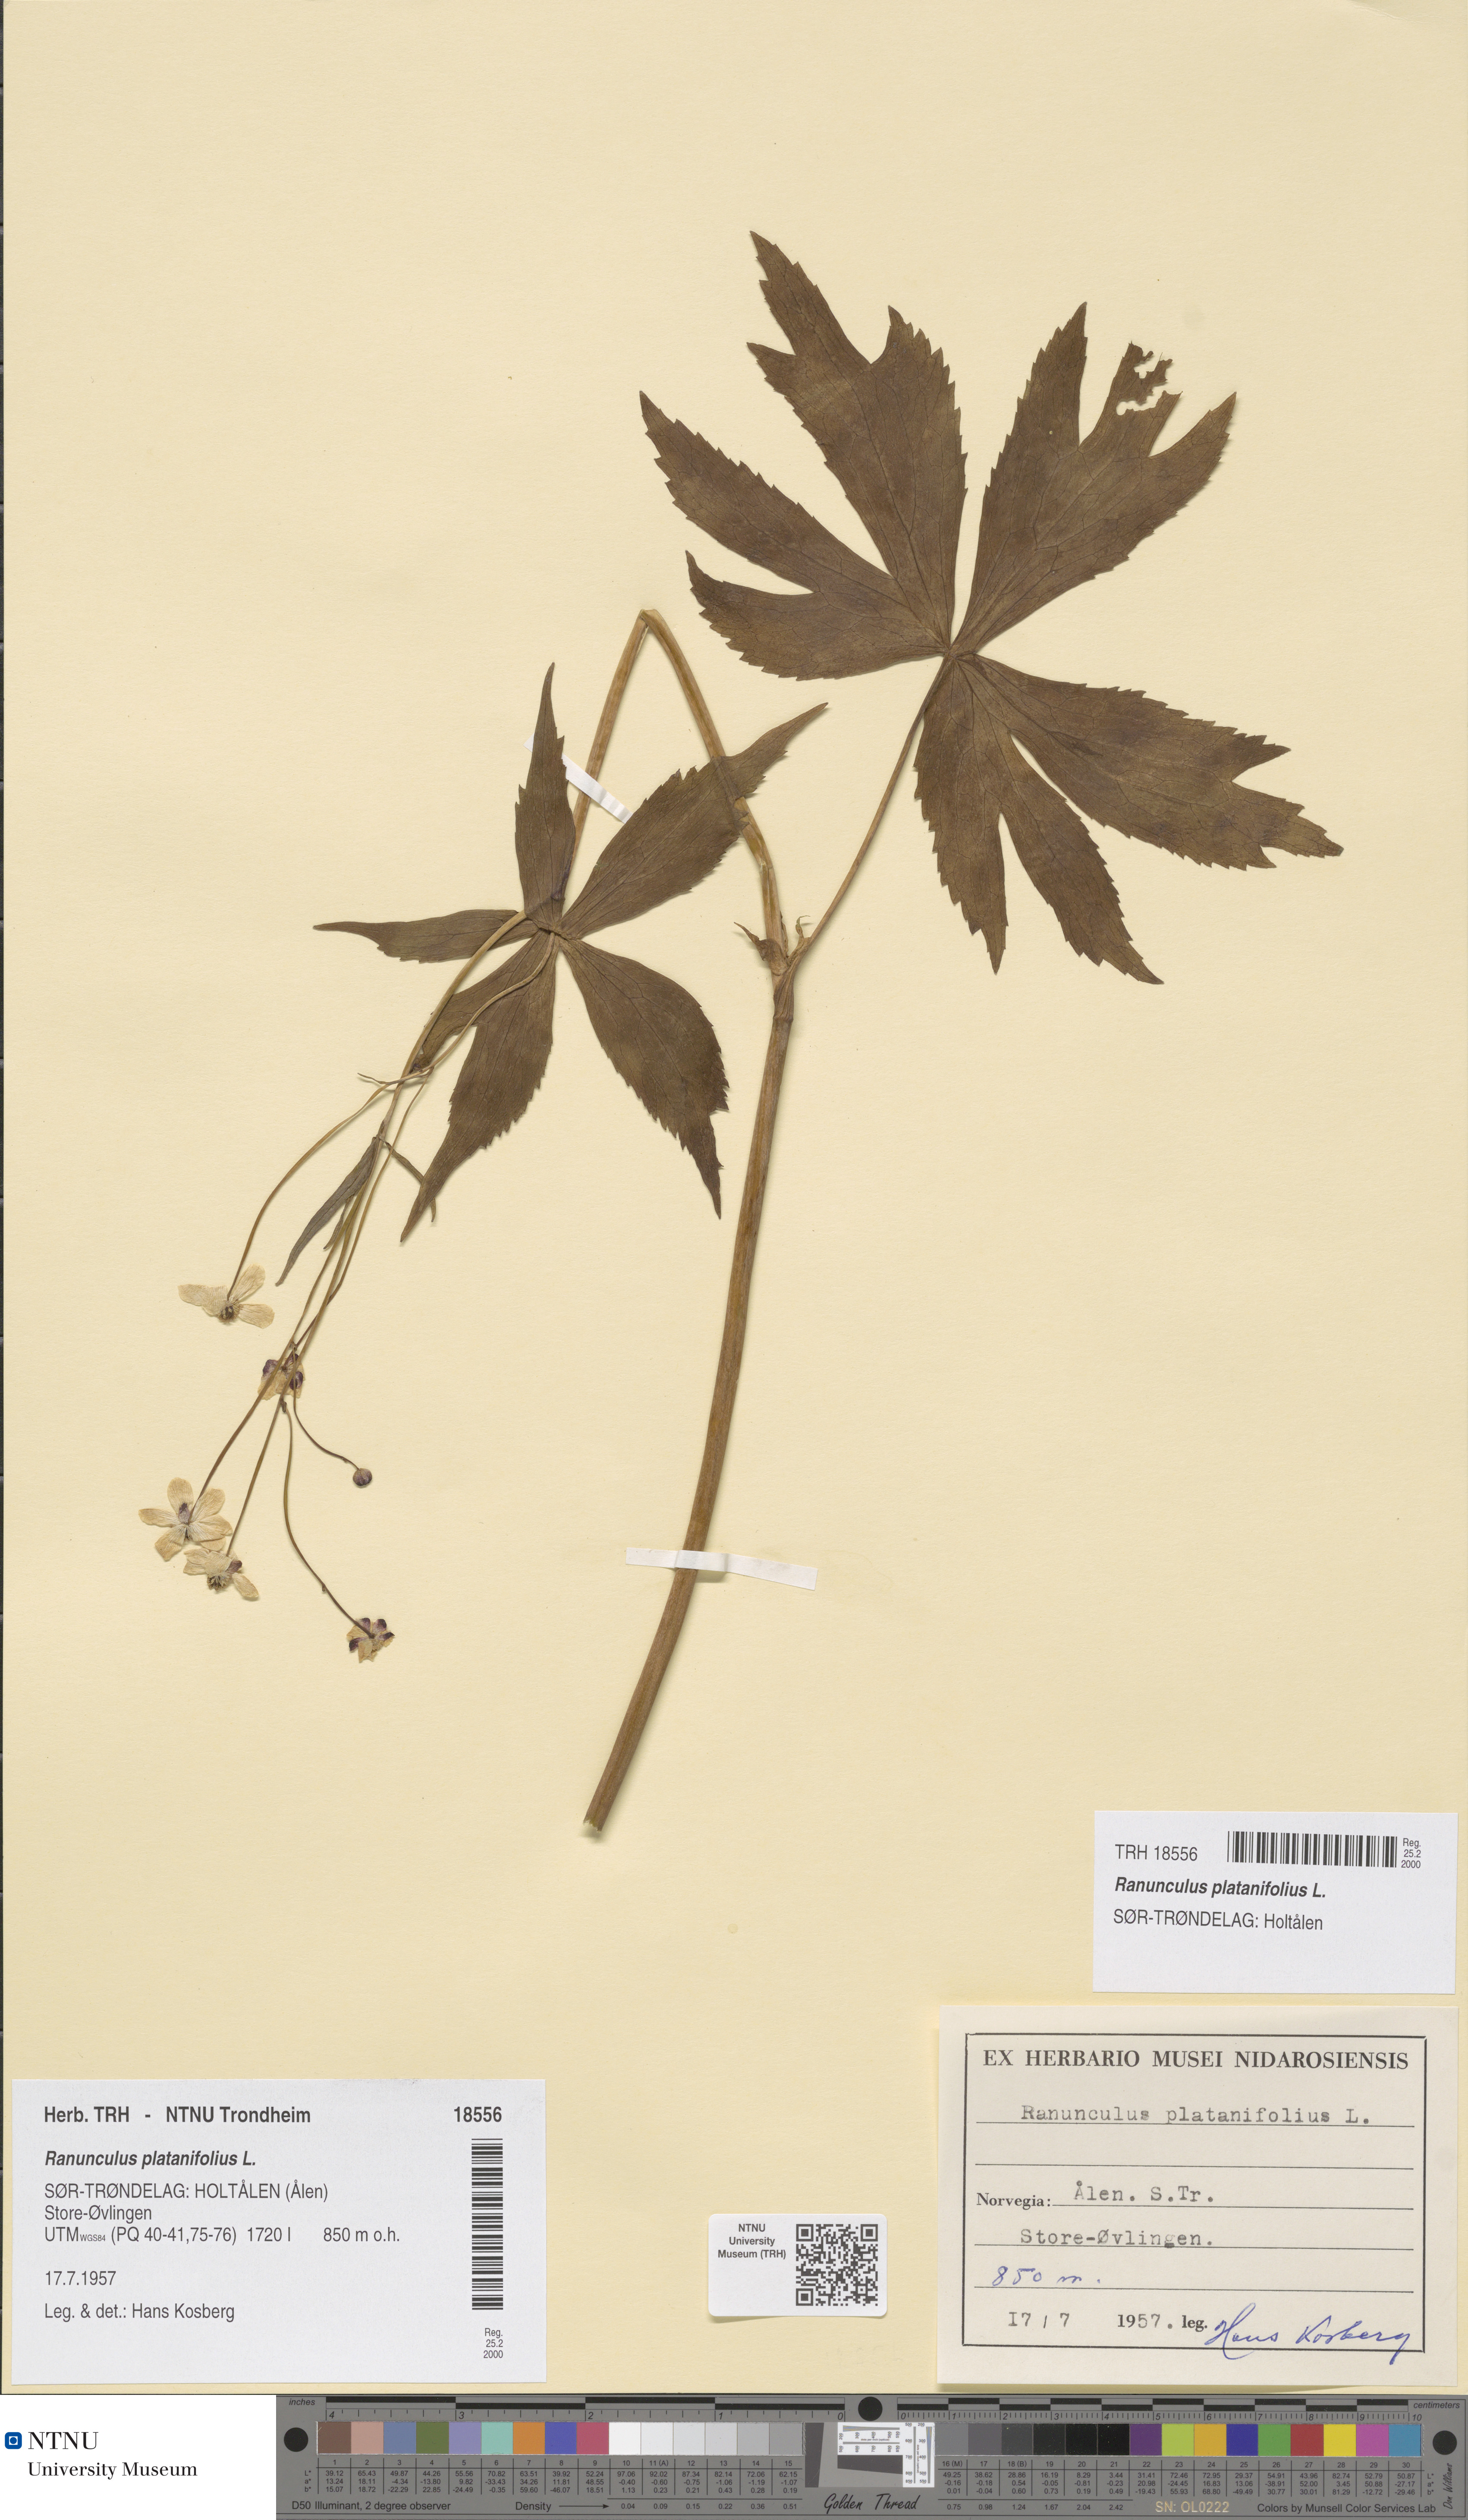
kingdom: Plantae
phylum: Tracheophyta
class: Magnoliopsida
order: Ranunculales
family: Ranunculaceae
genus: Ranunculus
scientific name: Ranunculus platanifolius
